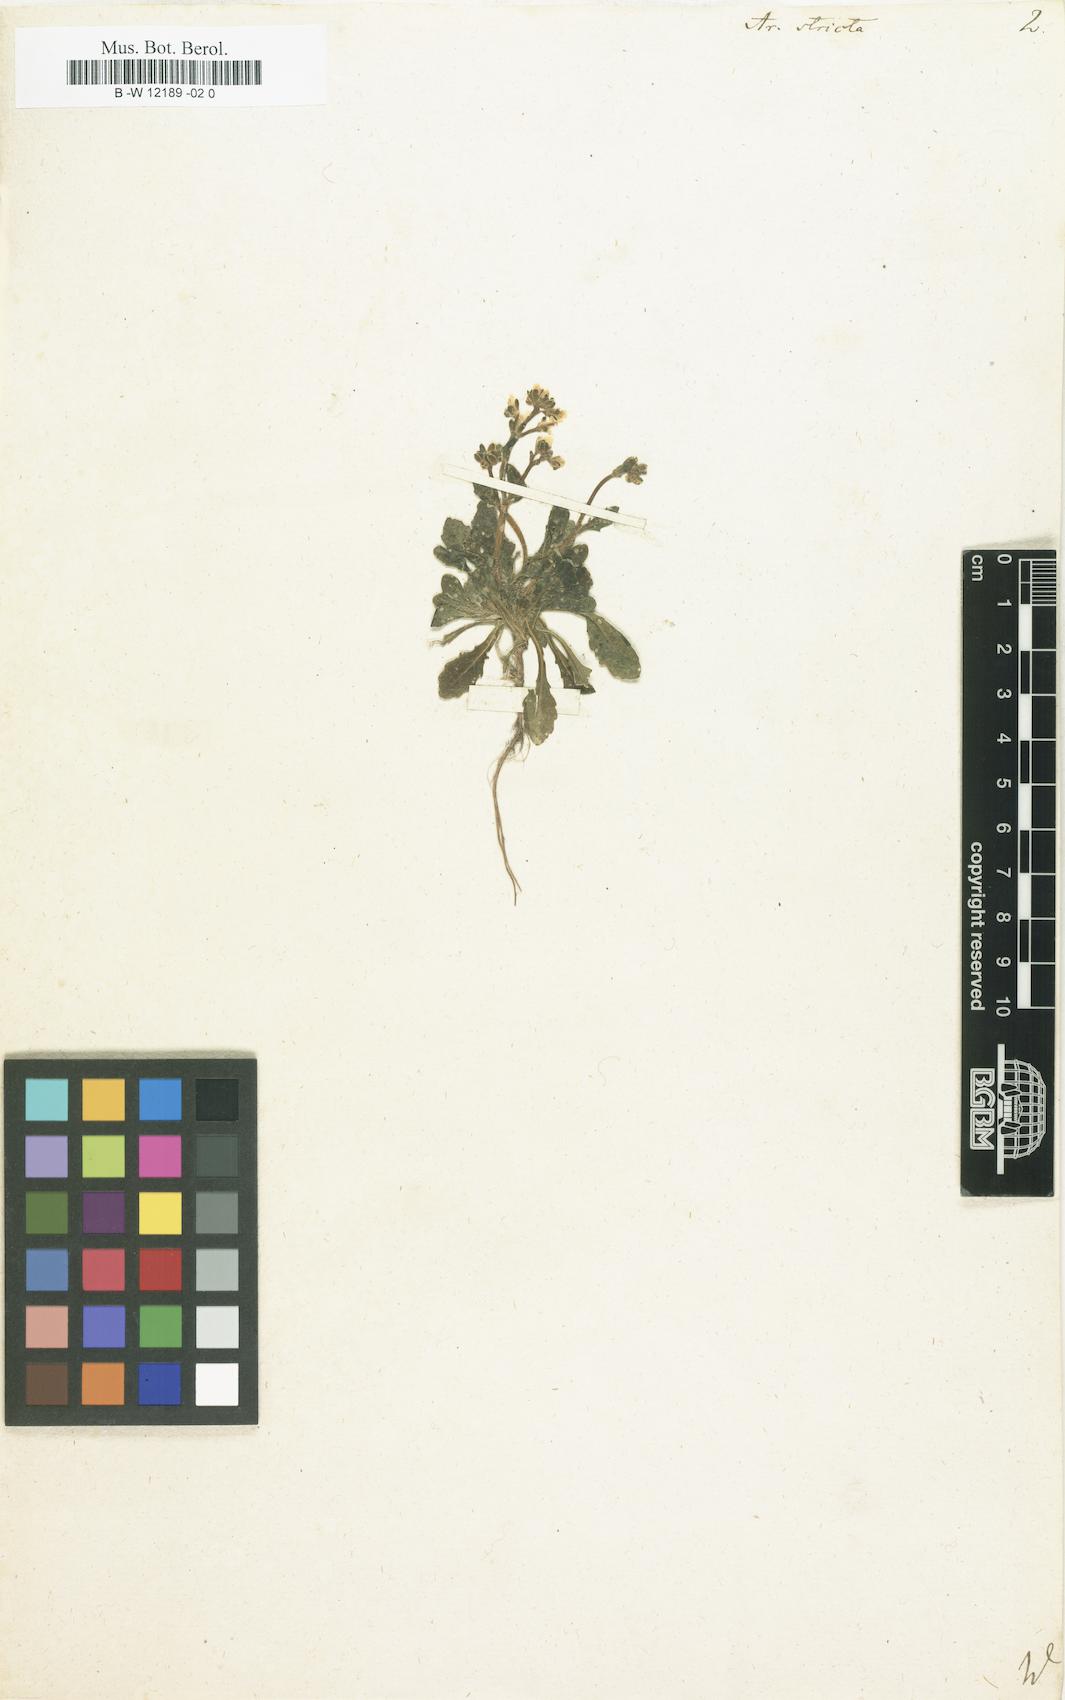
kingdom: Plantae
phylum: Tracheophyta
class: Magnoliopsida
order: Brassicales
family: Brassicaceae
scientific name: Brassicaceae
